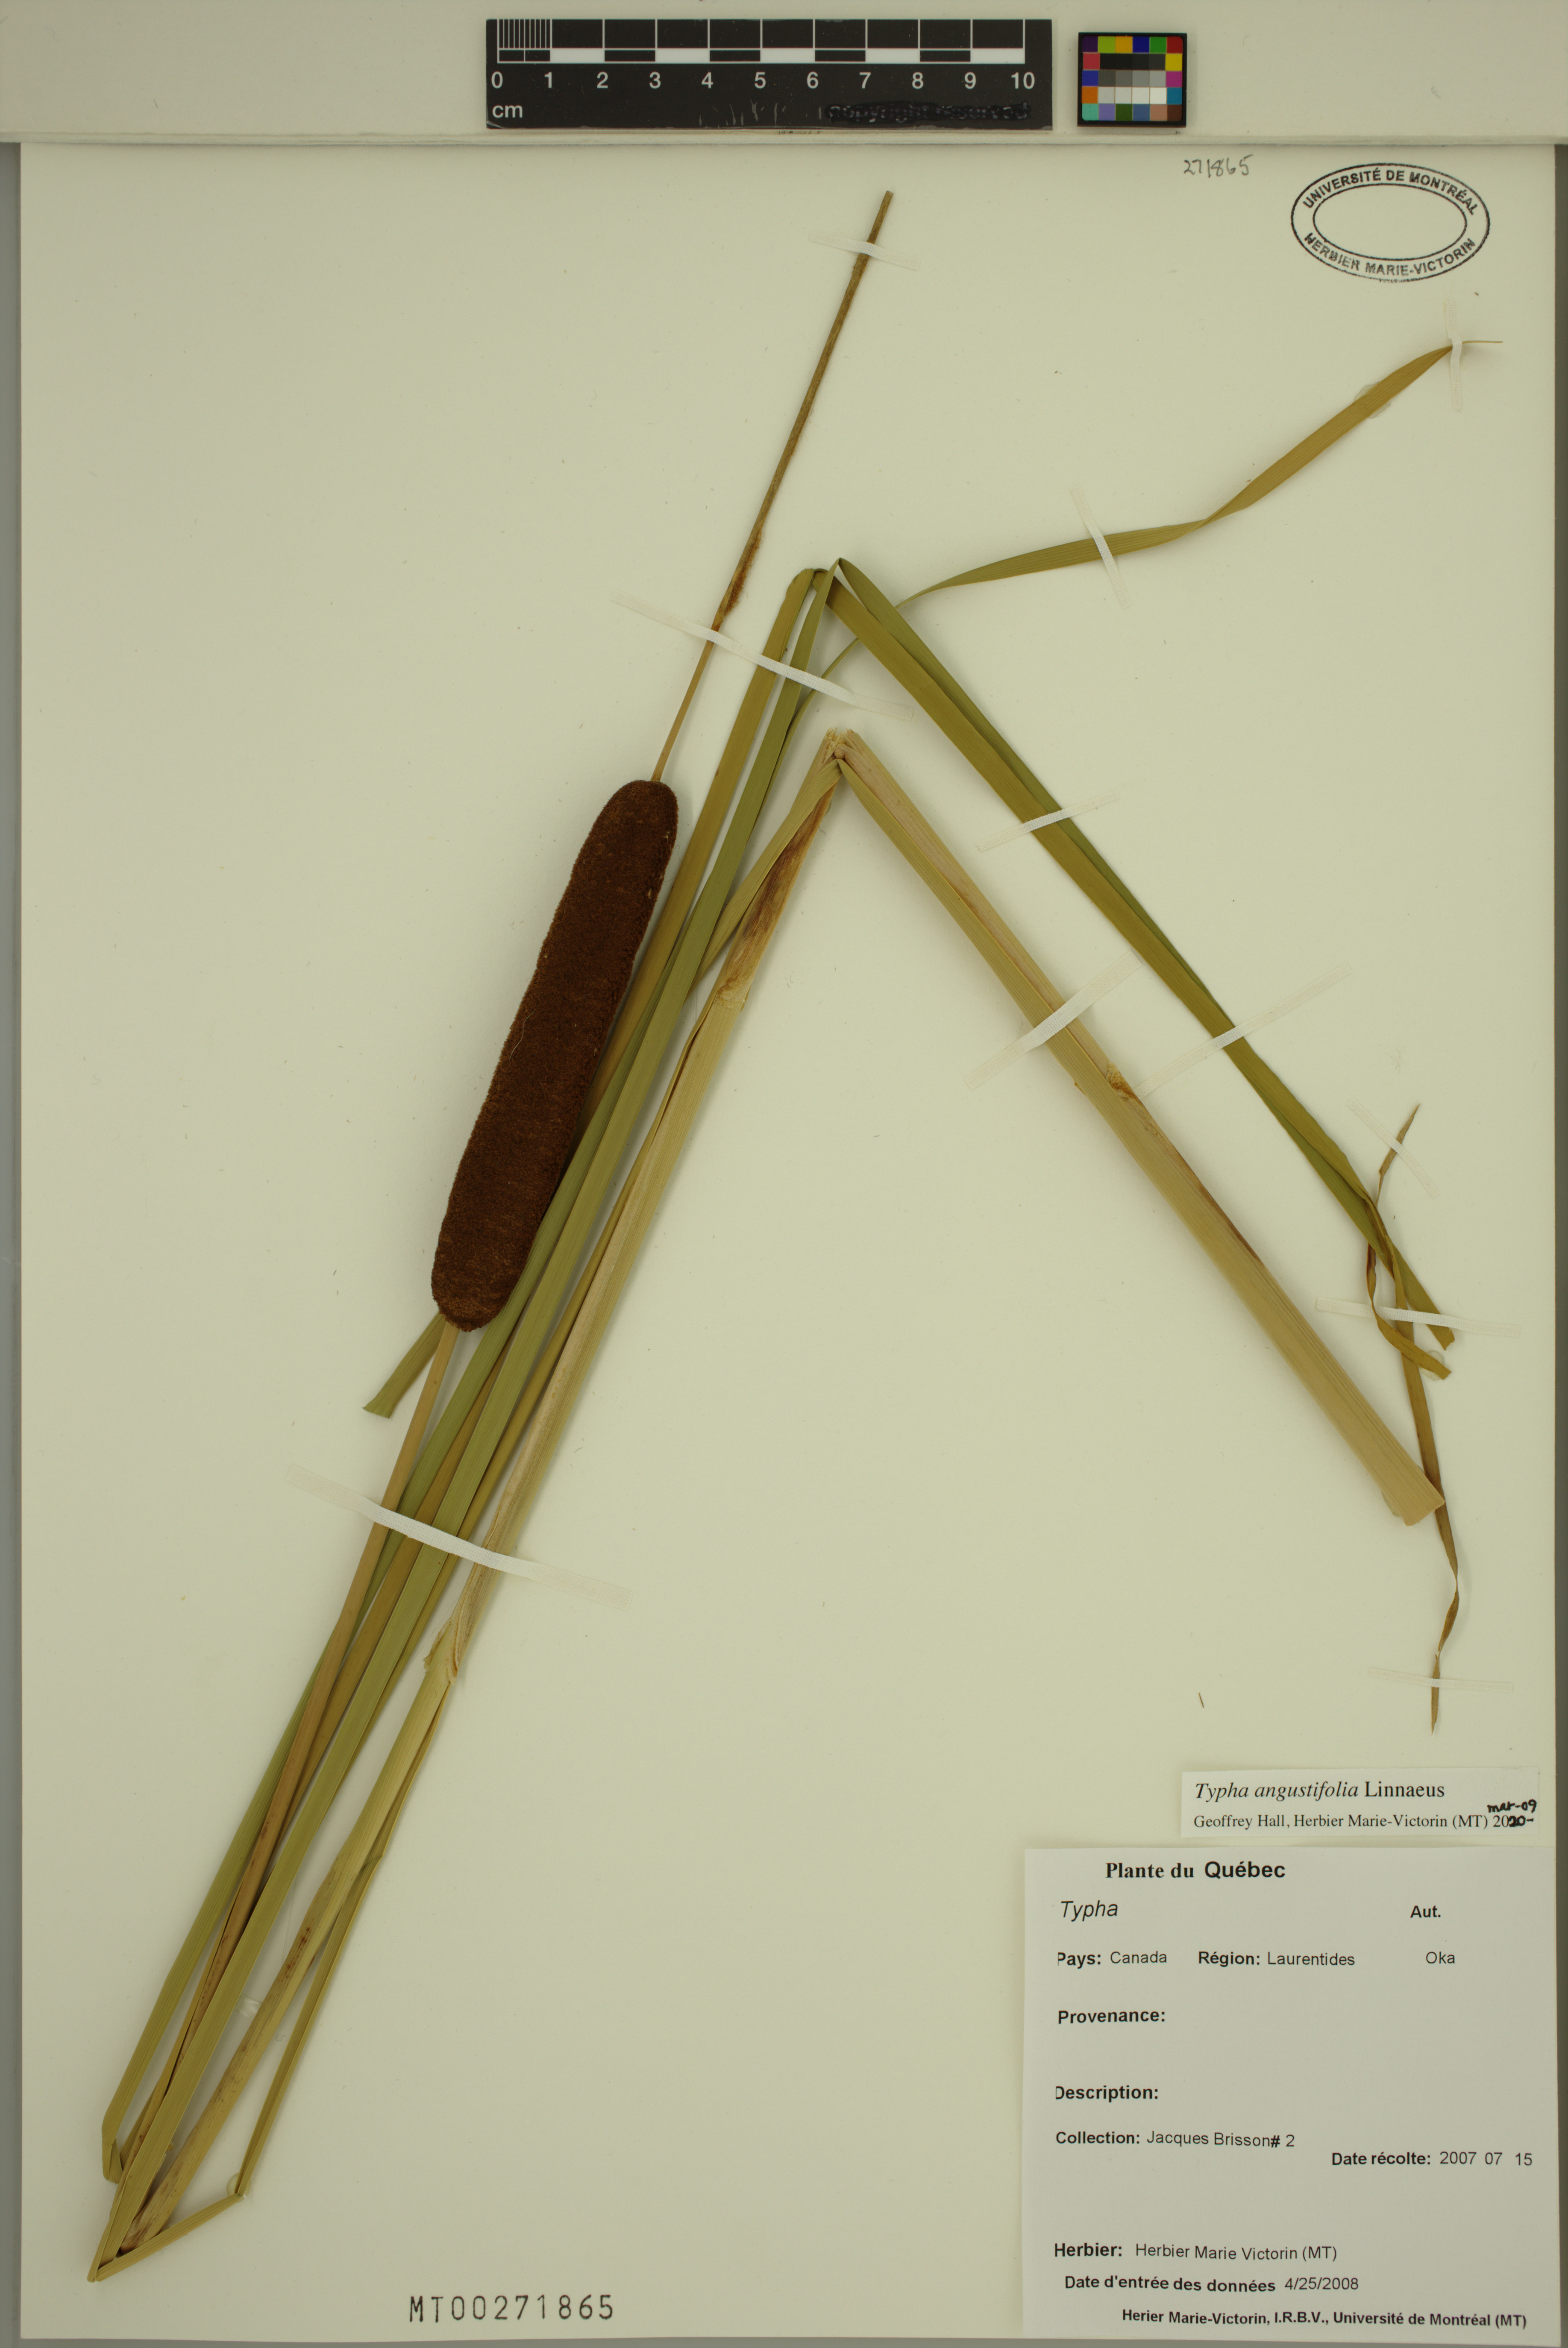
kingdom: Plantae
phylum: Tracheophyta
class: Liliopsida
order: Poales
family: Typhaceae
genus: Typha
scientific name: Typha angustifolia
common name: Lesser bulrush
